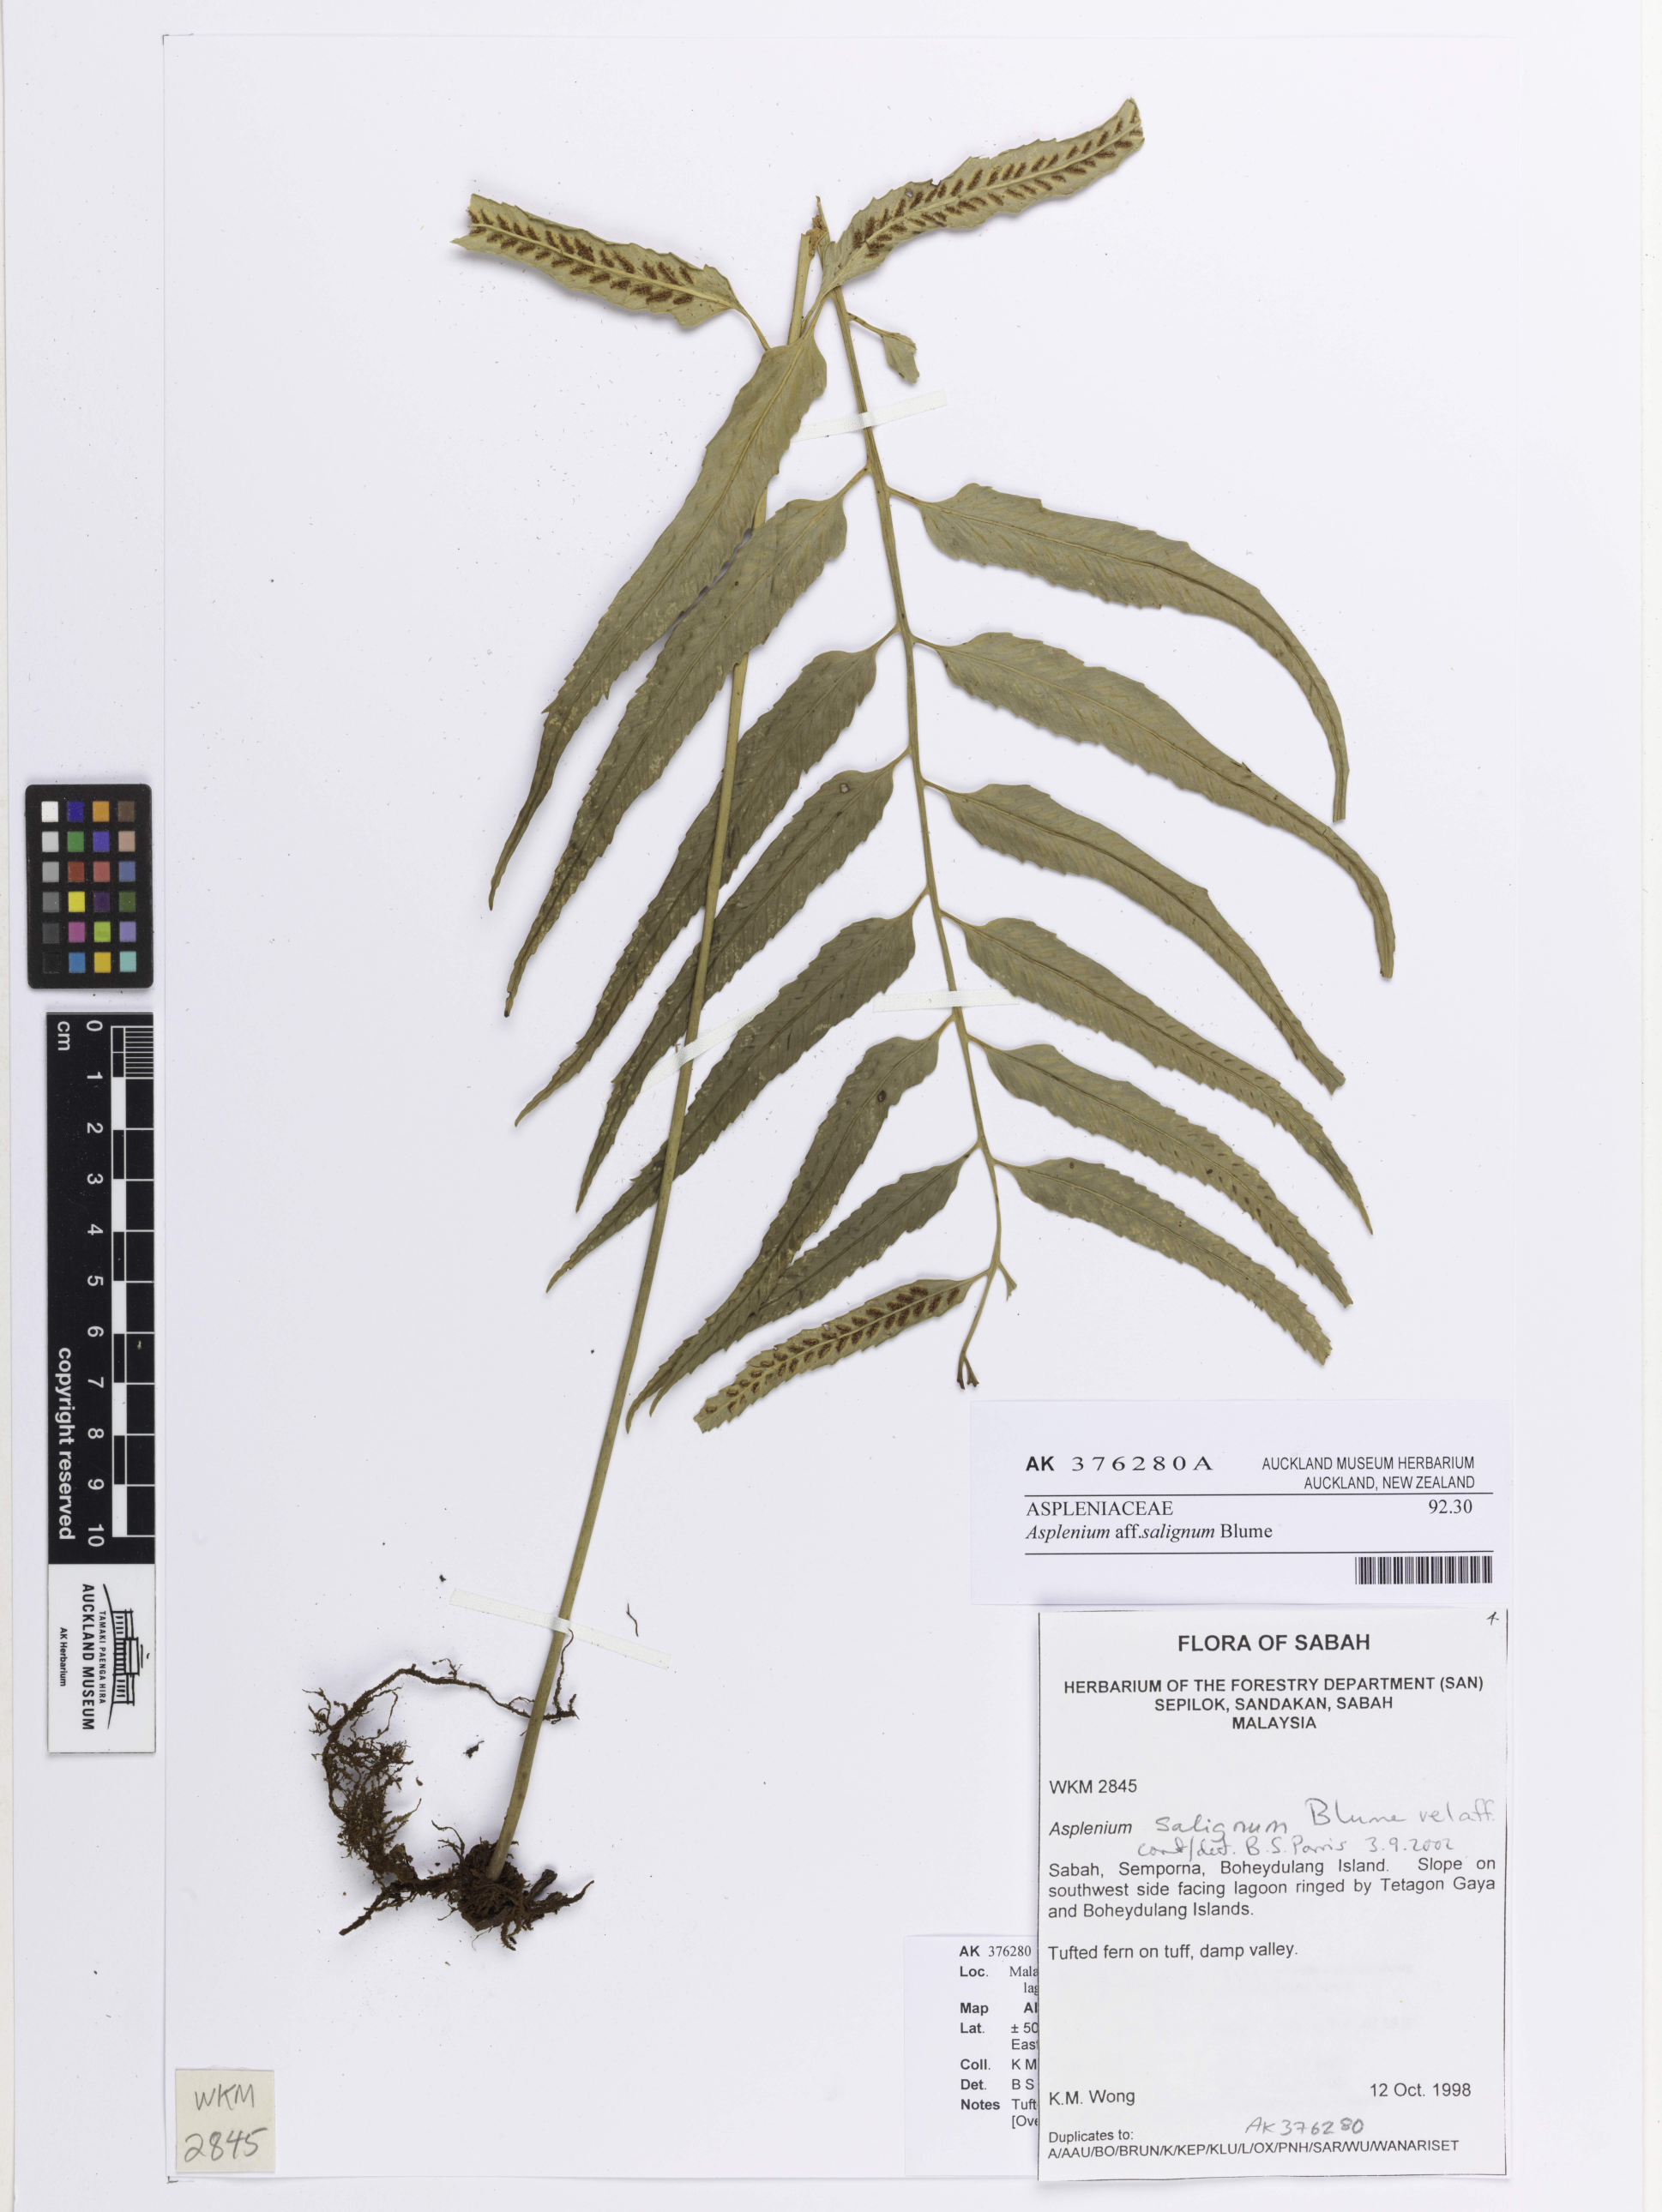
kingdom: Plantae
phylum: Tracheophyta
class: Polypodiopsida
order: Polypodiales
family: Aspleniaceae
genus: Asplenium
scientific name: Asplenium salignum
